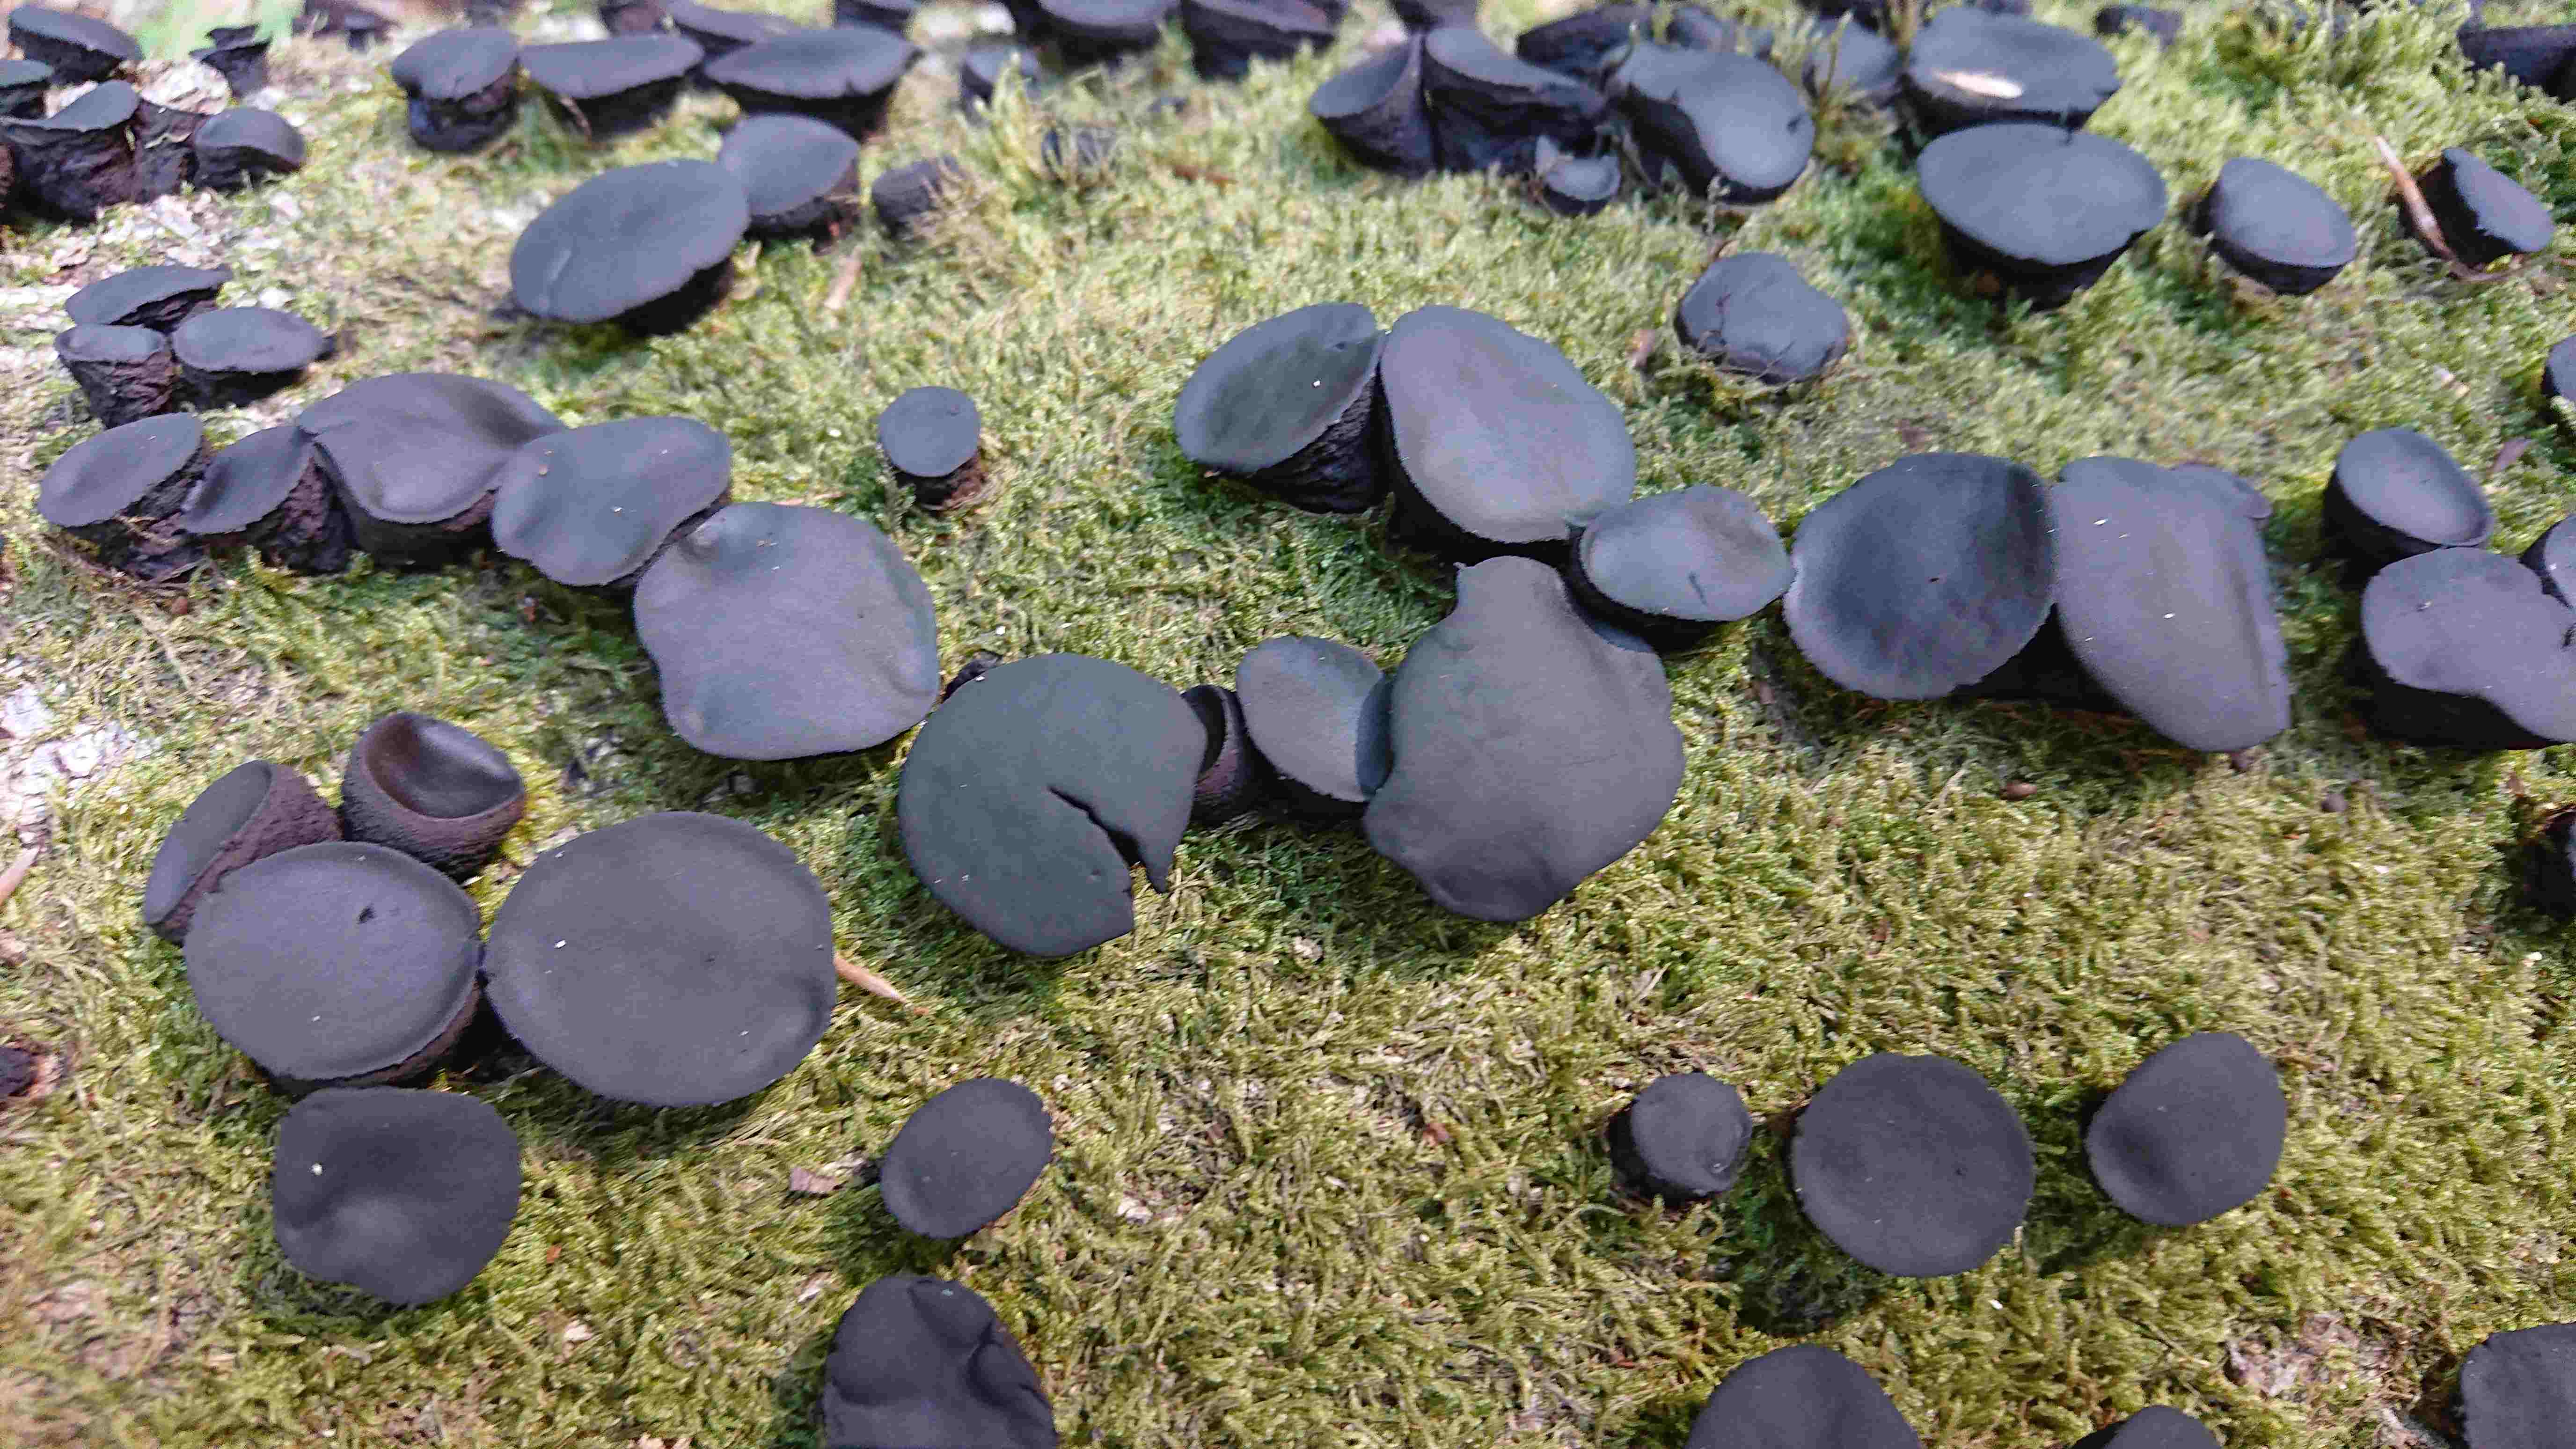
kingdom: Fungi
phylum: Ascomycota
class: Leotiomycetes
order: Phacidiales
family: Phacidiaceae
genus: Bulgaria
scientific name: Bulgaria inquinans
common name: afsmittende topsvamp
